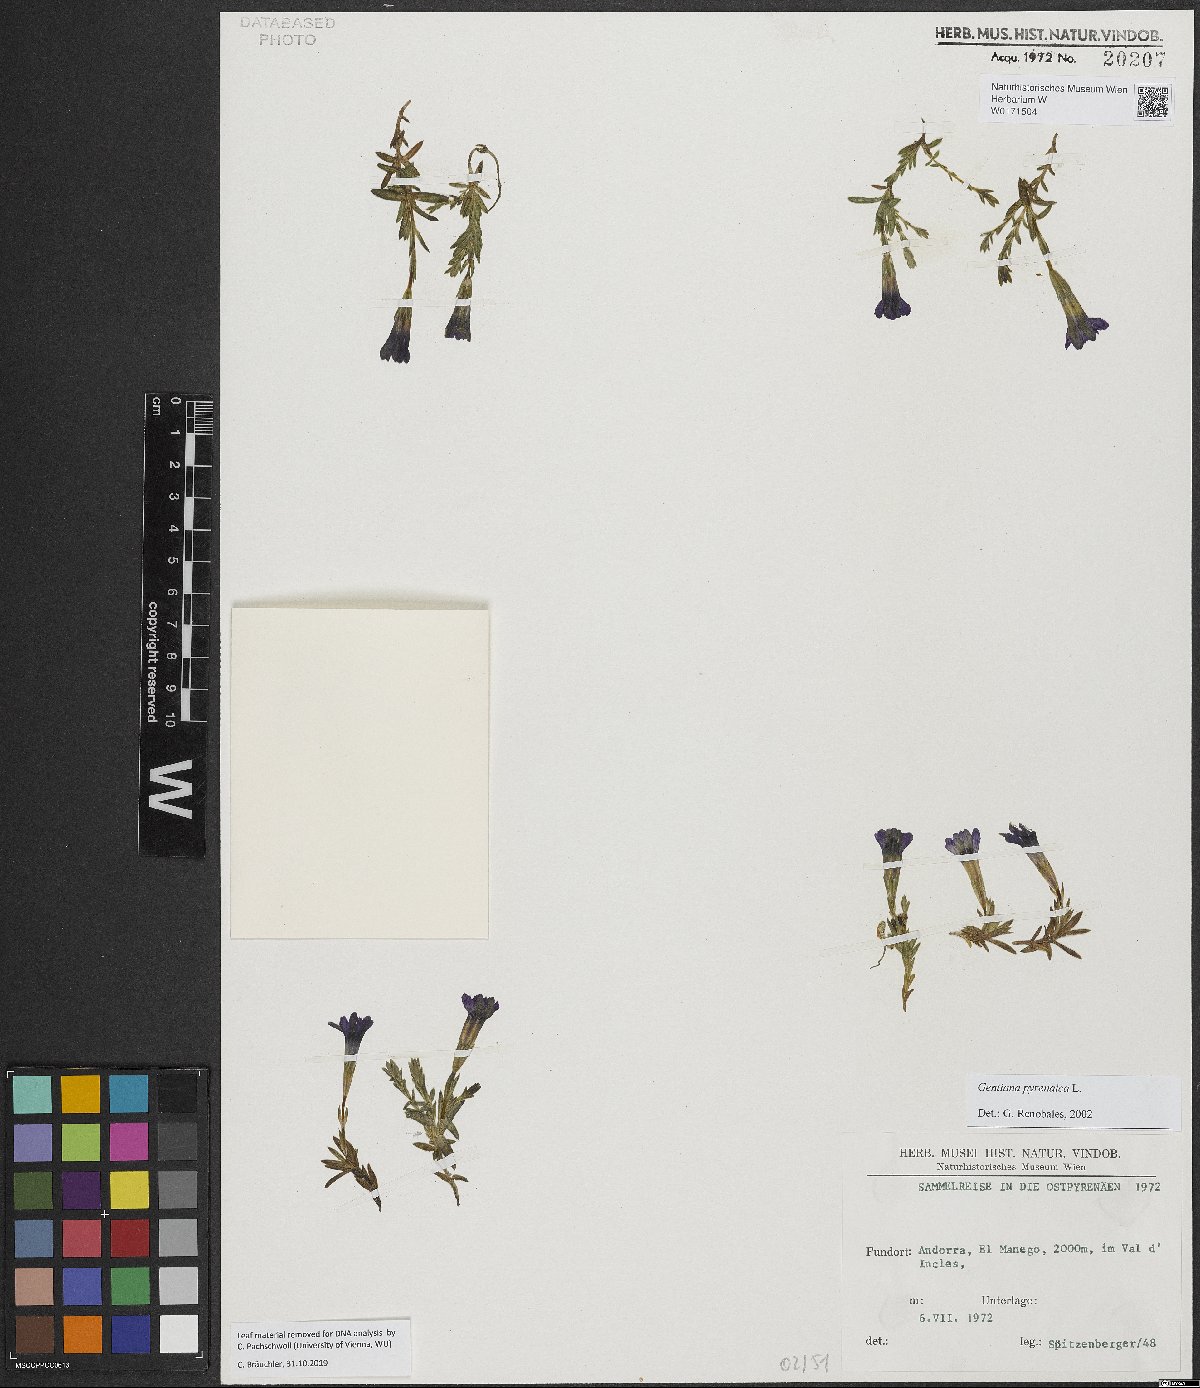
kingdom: Plantae
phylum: Tracheophyta
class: Magnoliopsida
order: Gentianales
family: Gentianaceae
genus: Gentiana
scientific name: Gentiana pyrenaica
